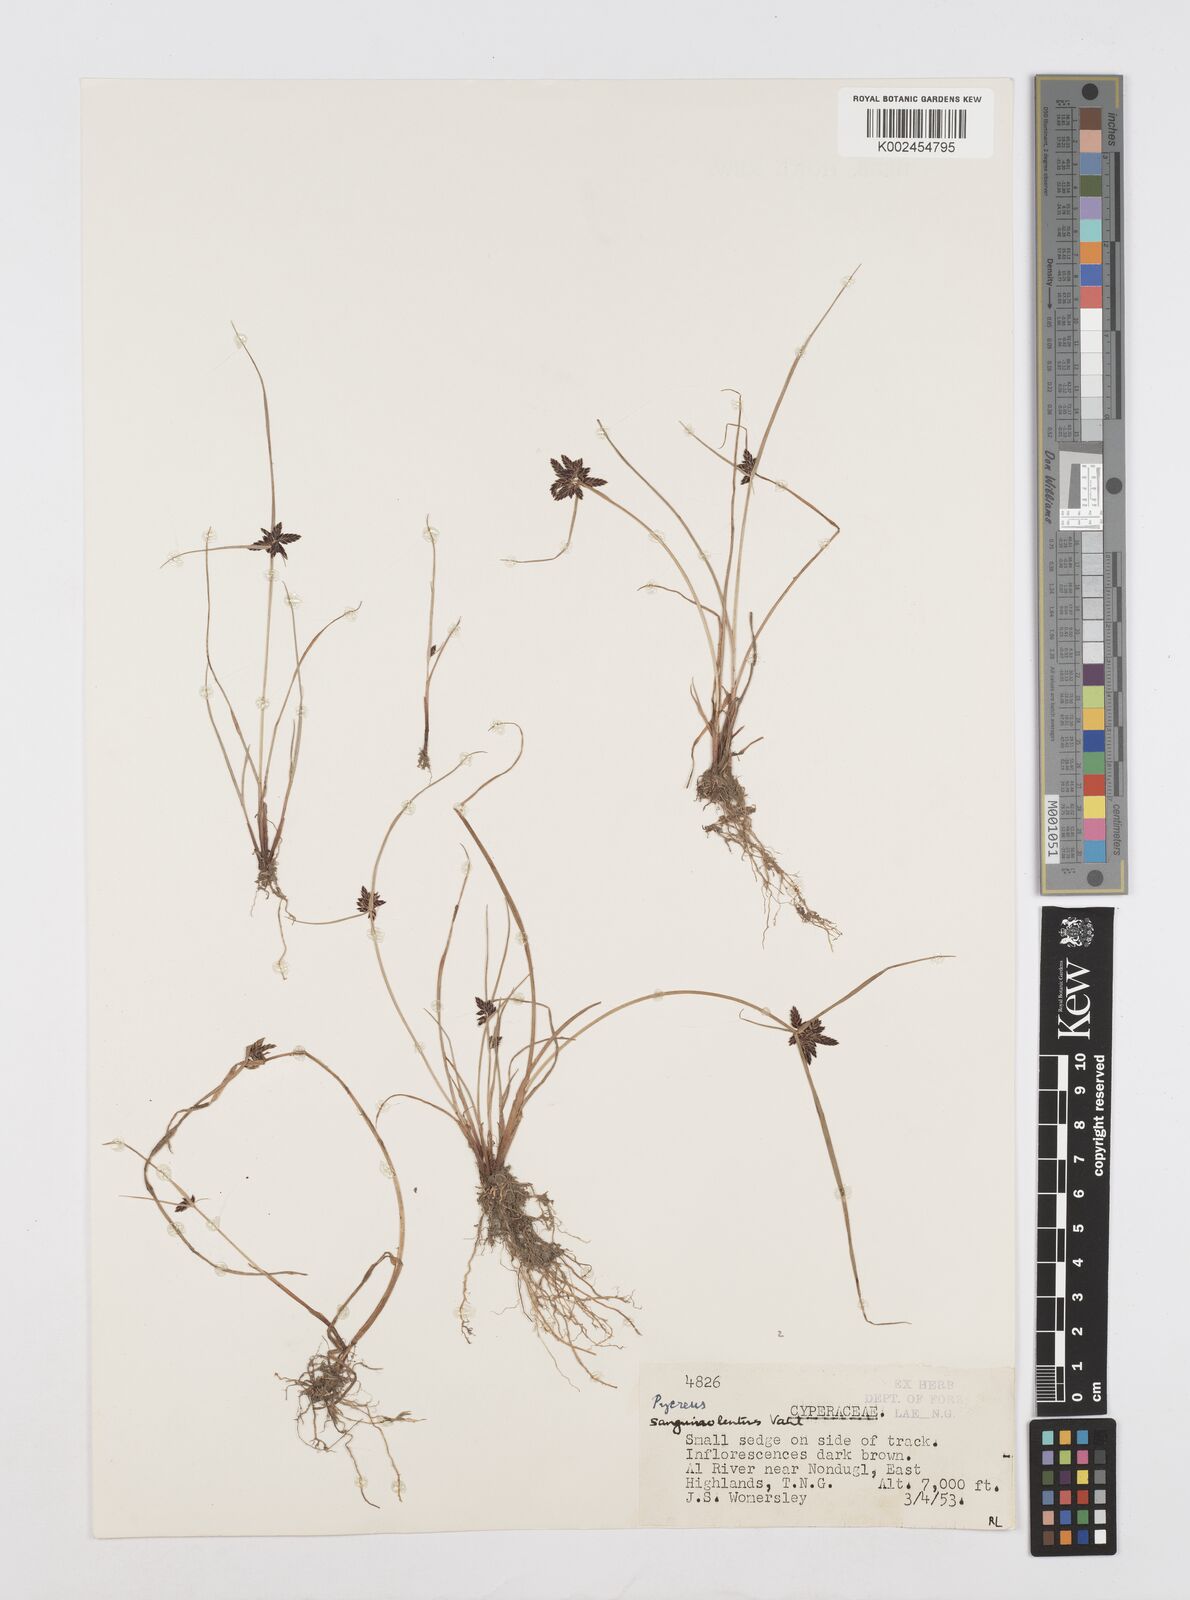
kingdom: Plantae
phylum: Tracheophyta
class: Liliopsida
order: Poales
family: Cyperaceae
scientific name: Cyperaceae
